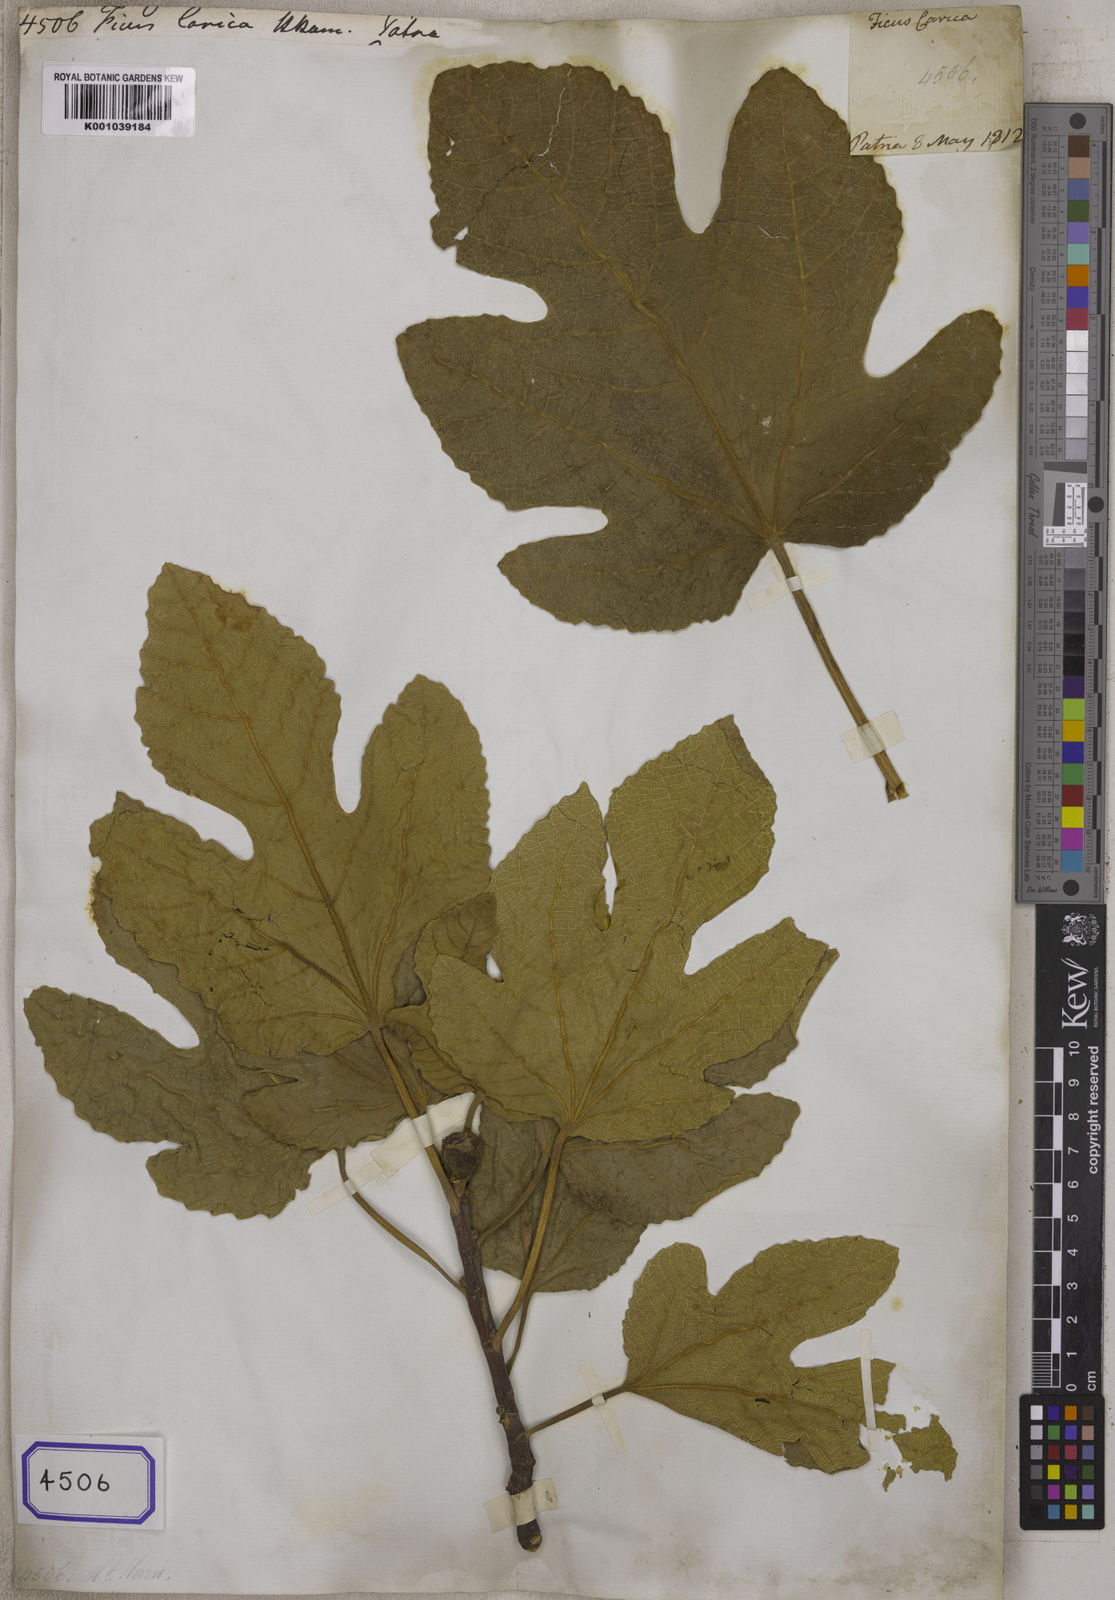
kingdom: Plantae
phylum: Tracheophyta
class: Magnoliopsida
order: Rosales
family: Moraceae
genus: Ficus
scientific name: Ficus carica
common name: Fig
